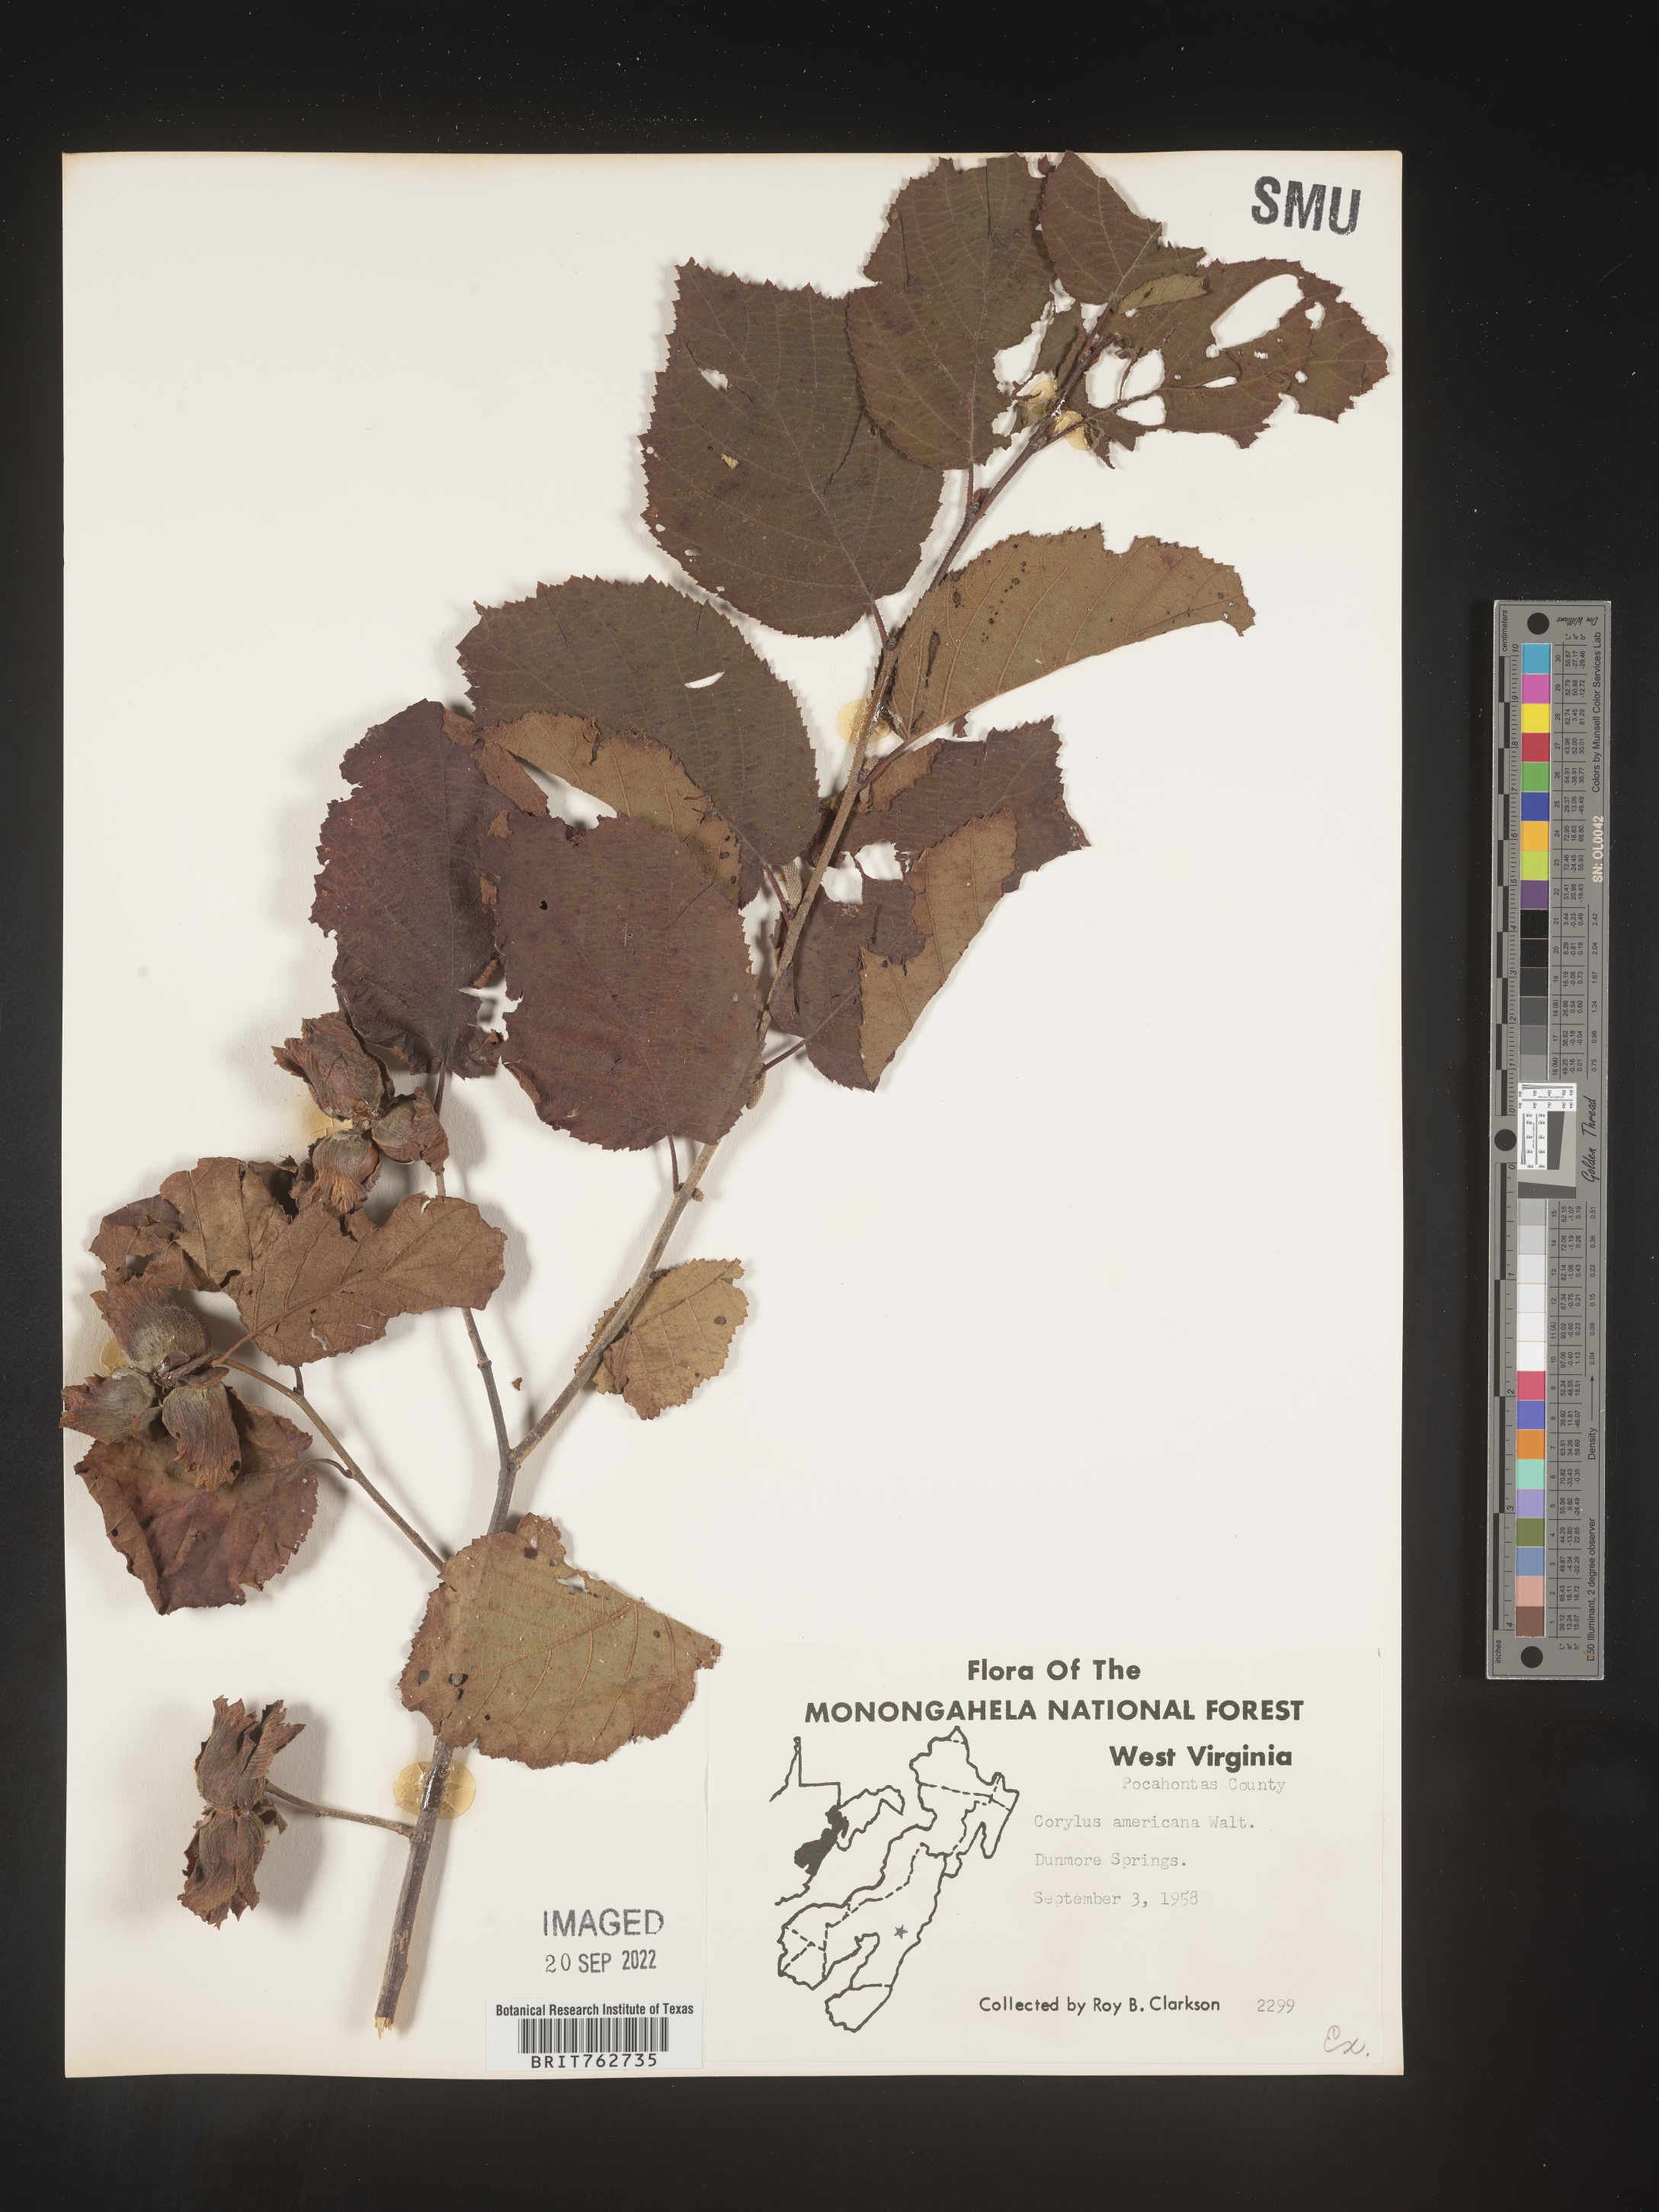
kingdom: Plantae
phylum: Tracheophyta
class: Magnoliopsida
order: Fagales
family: Betulaceae
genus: Corylus
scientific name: Corylus americana
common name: American hazel
